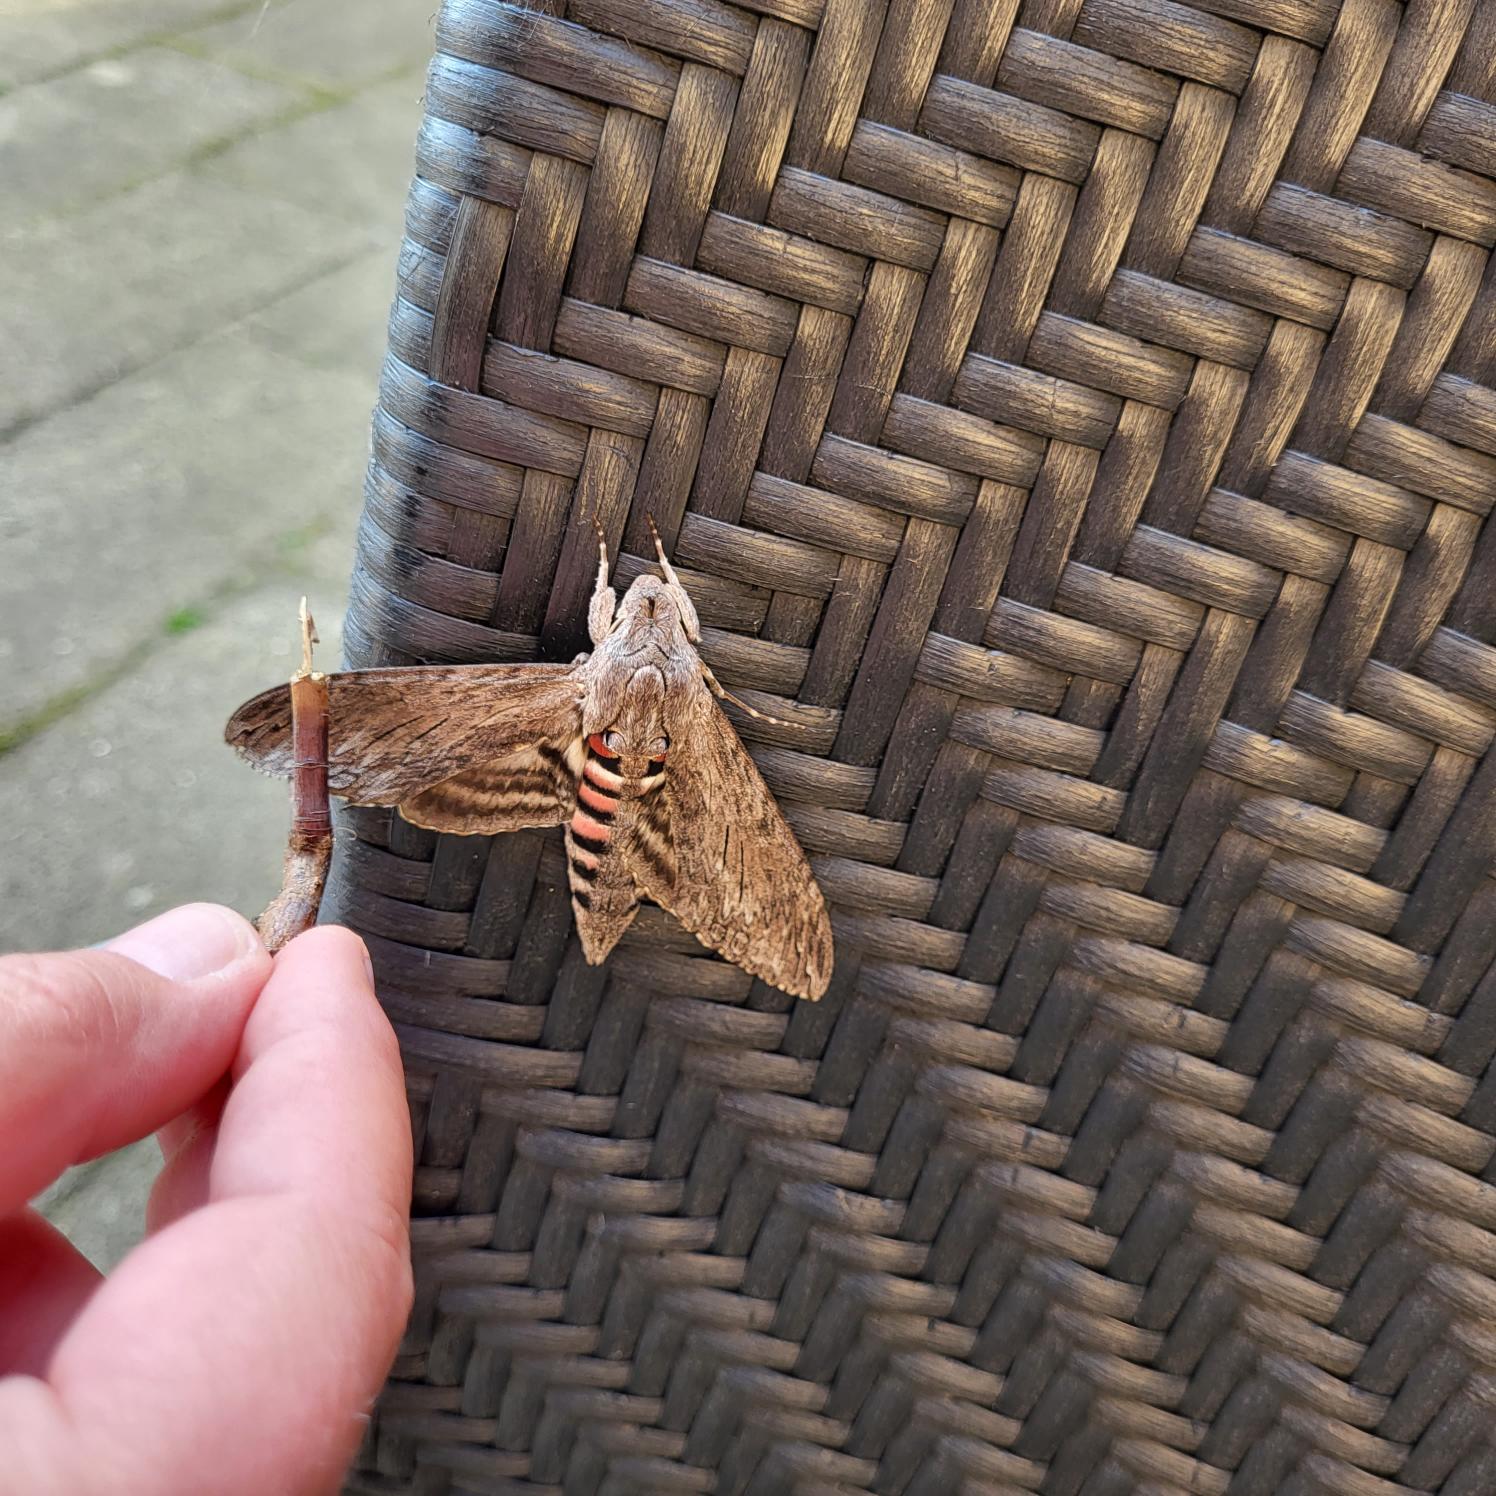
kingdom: Animalia
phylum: Arthropoda
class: Insecta
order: Lepidoptera
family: Sphingidae
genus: Agrius
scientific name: Agrius convolvuli
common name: Snerlesværmer
